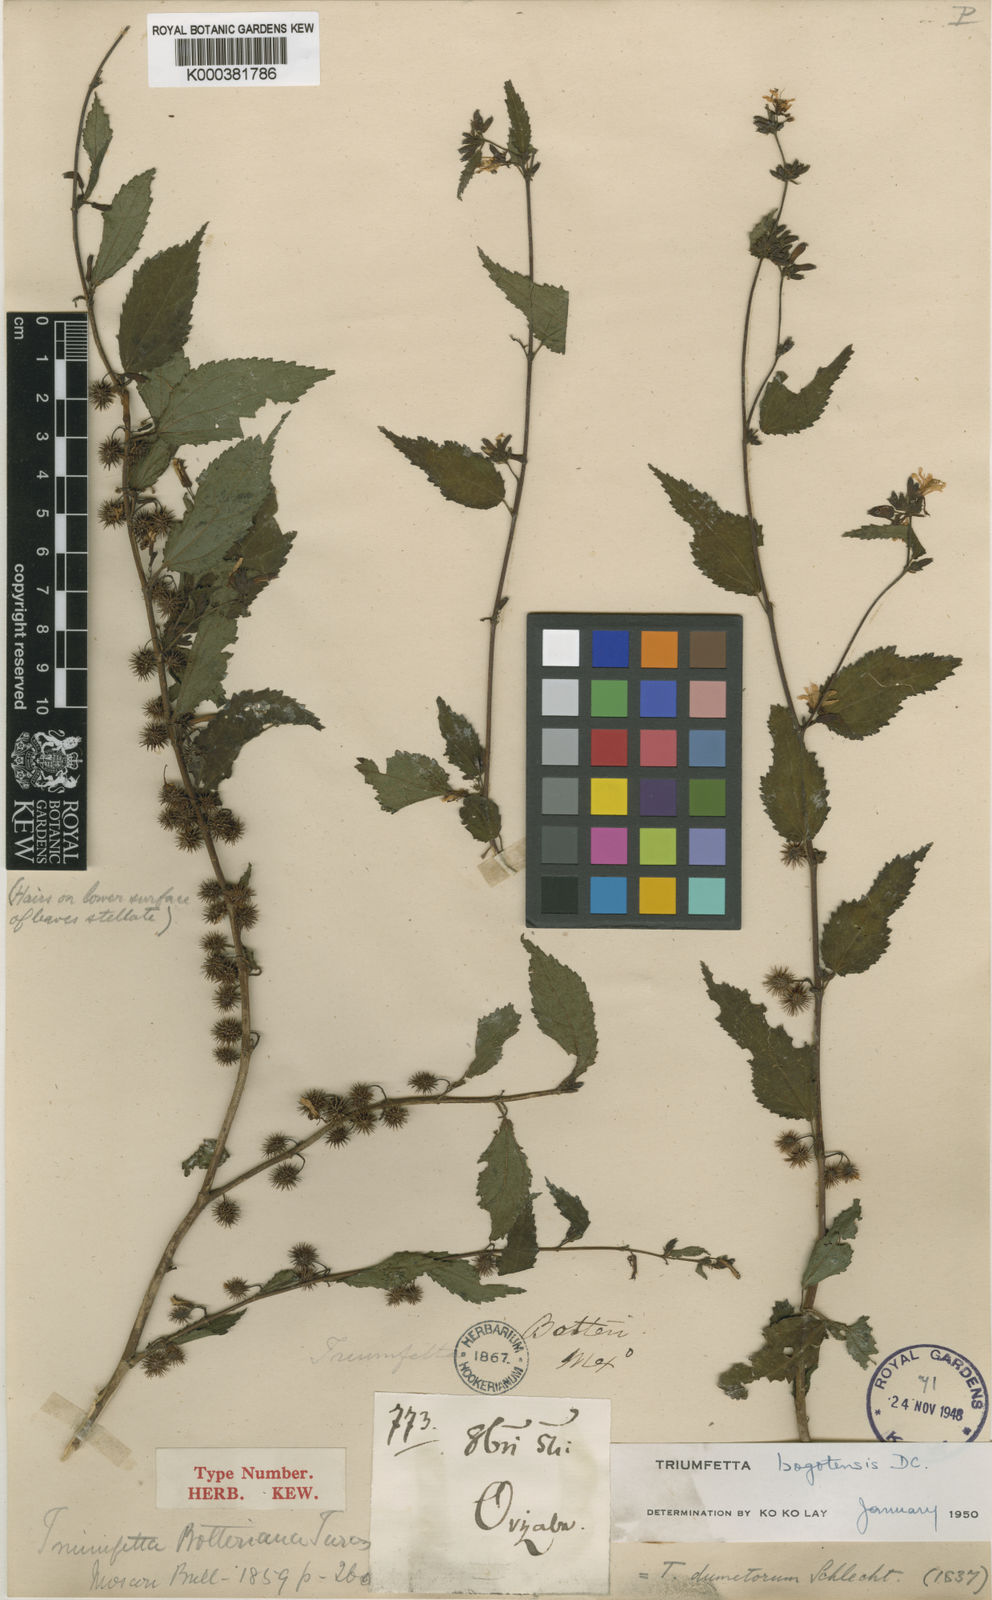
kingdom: Plantae
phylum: Tracheophyta
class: Magnoliopsida
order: Malvales
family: Malvaceae
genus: Triumfetta
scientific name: Triumfetta bogotensis
